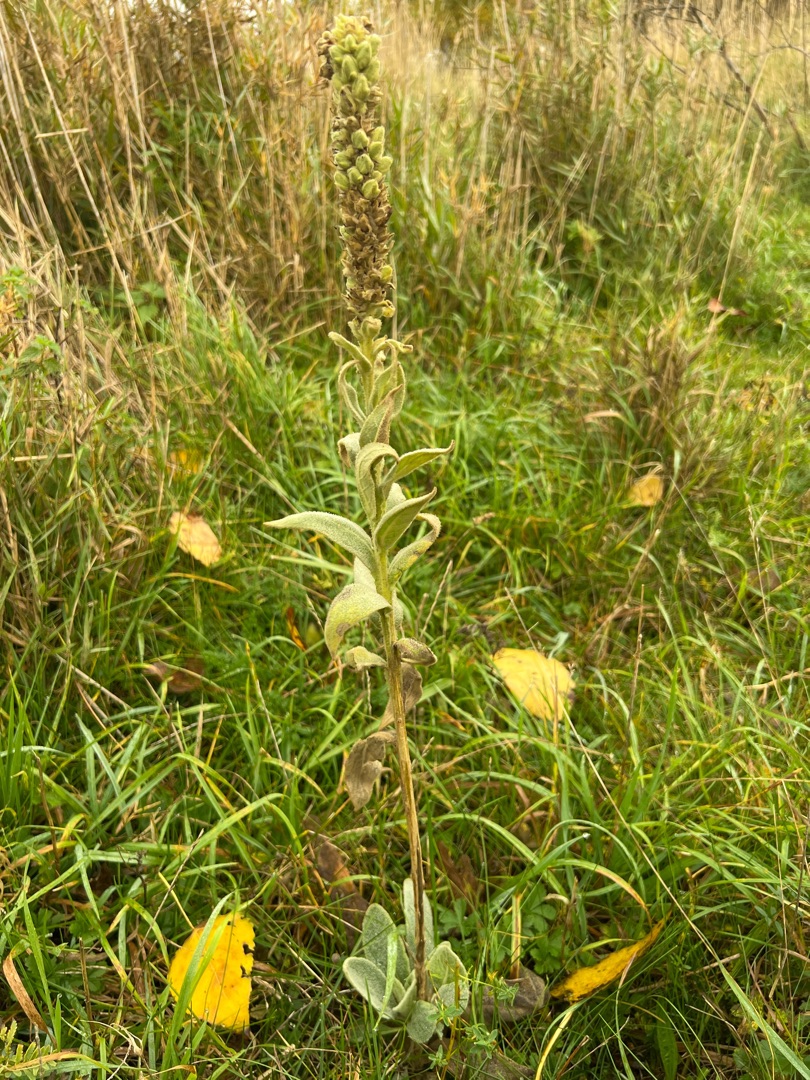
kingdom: Plantae
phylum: Tracheophyta
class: Magnoliopsida
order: Lamiales
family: Scrophulariaceae
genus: Verbascum
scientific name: Verbascum thapsus
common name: Filtbladet kongelys
